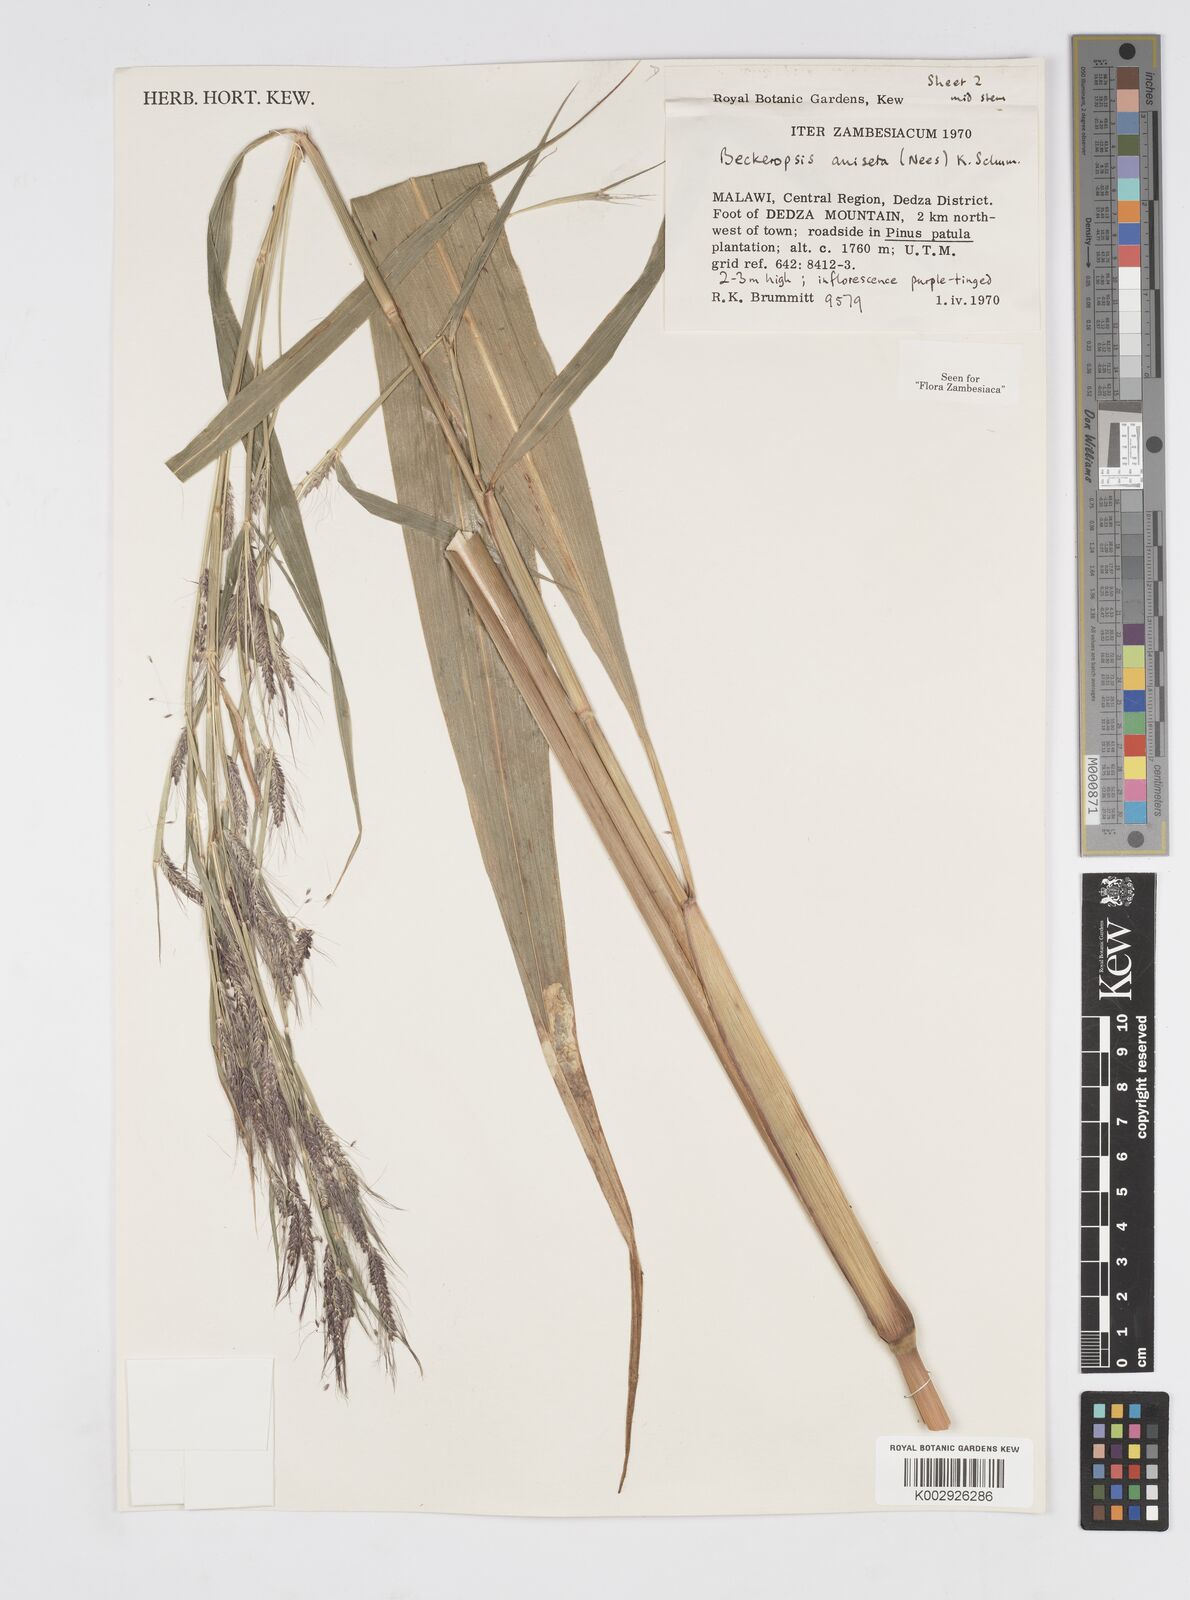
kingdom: Plantae
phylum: Tracheophyta
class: Liliopsida
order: Poales
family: Poaceae
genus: Cenchrus
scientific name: Cenchrus unisetus
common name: Natal grass
